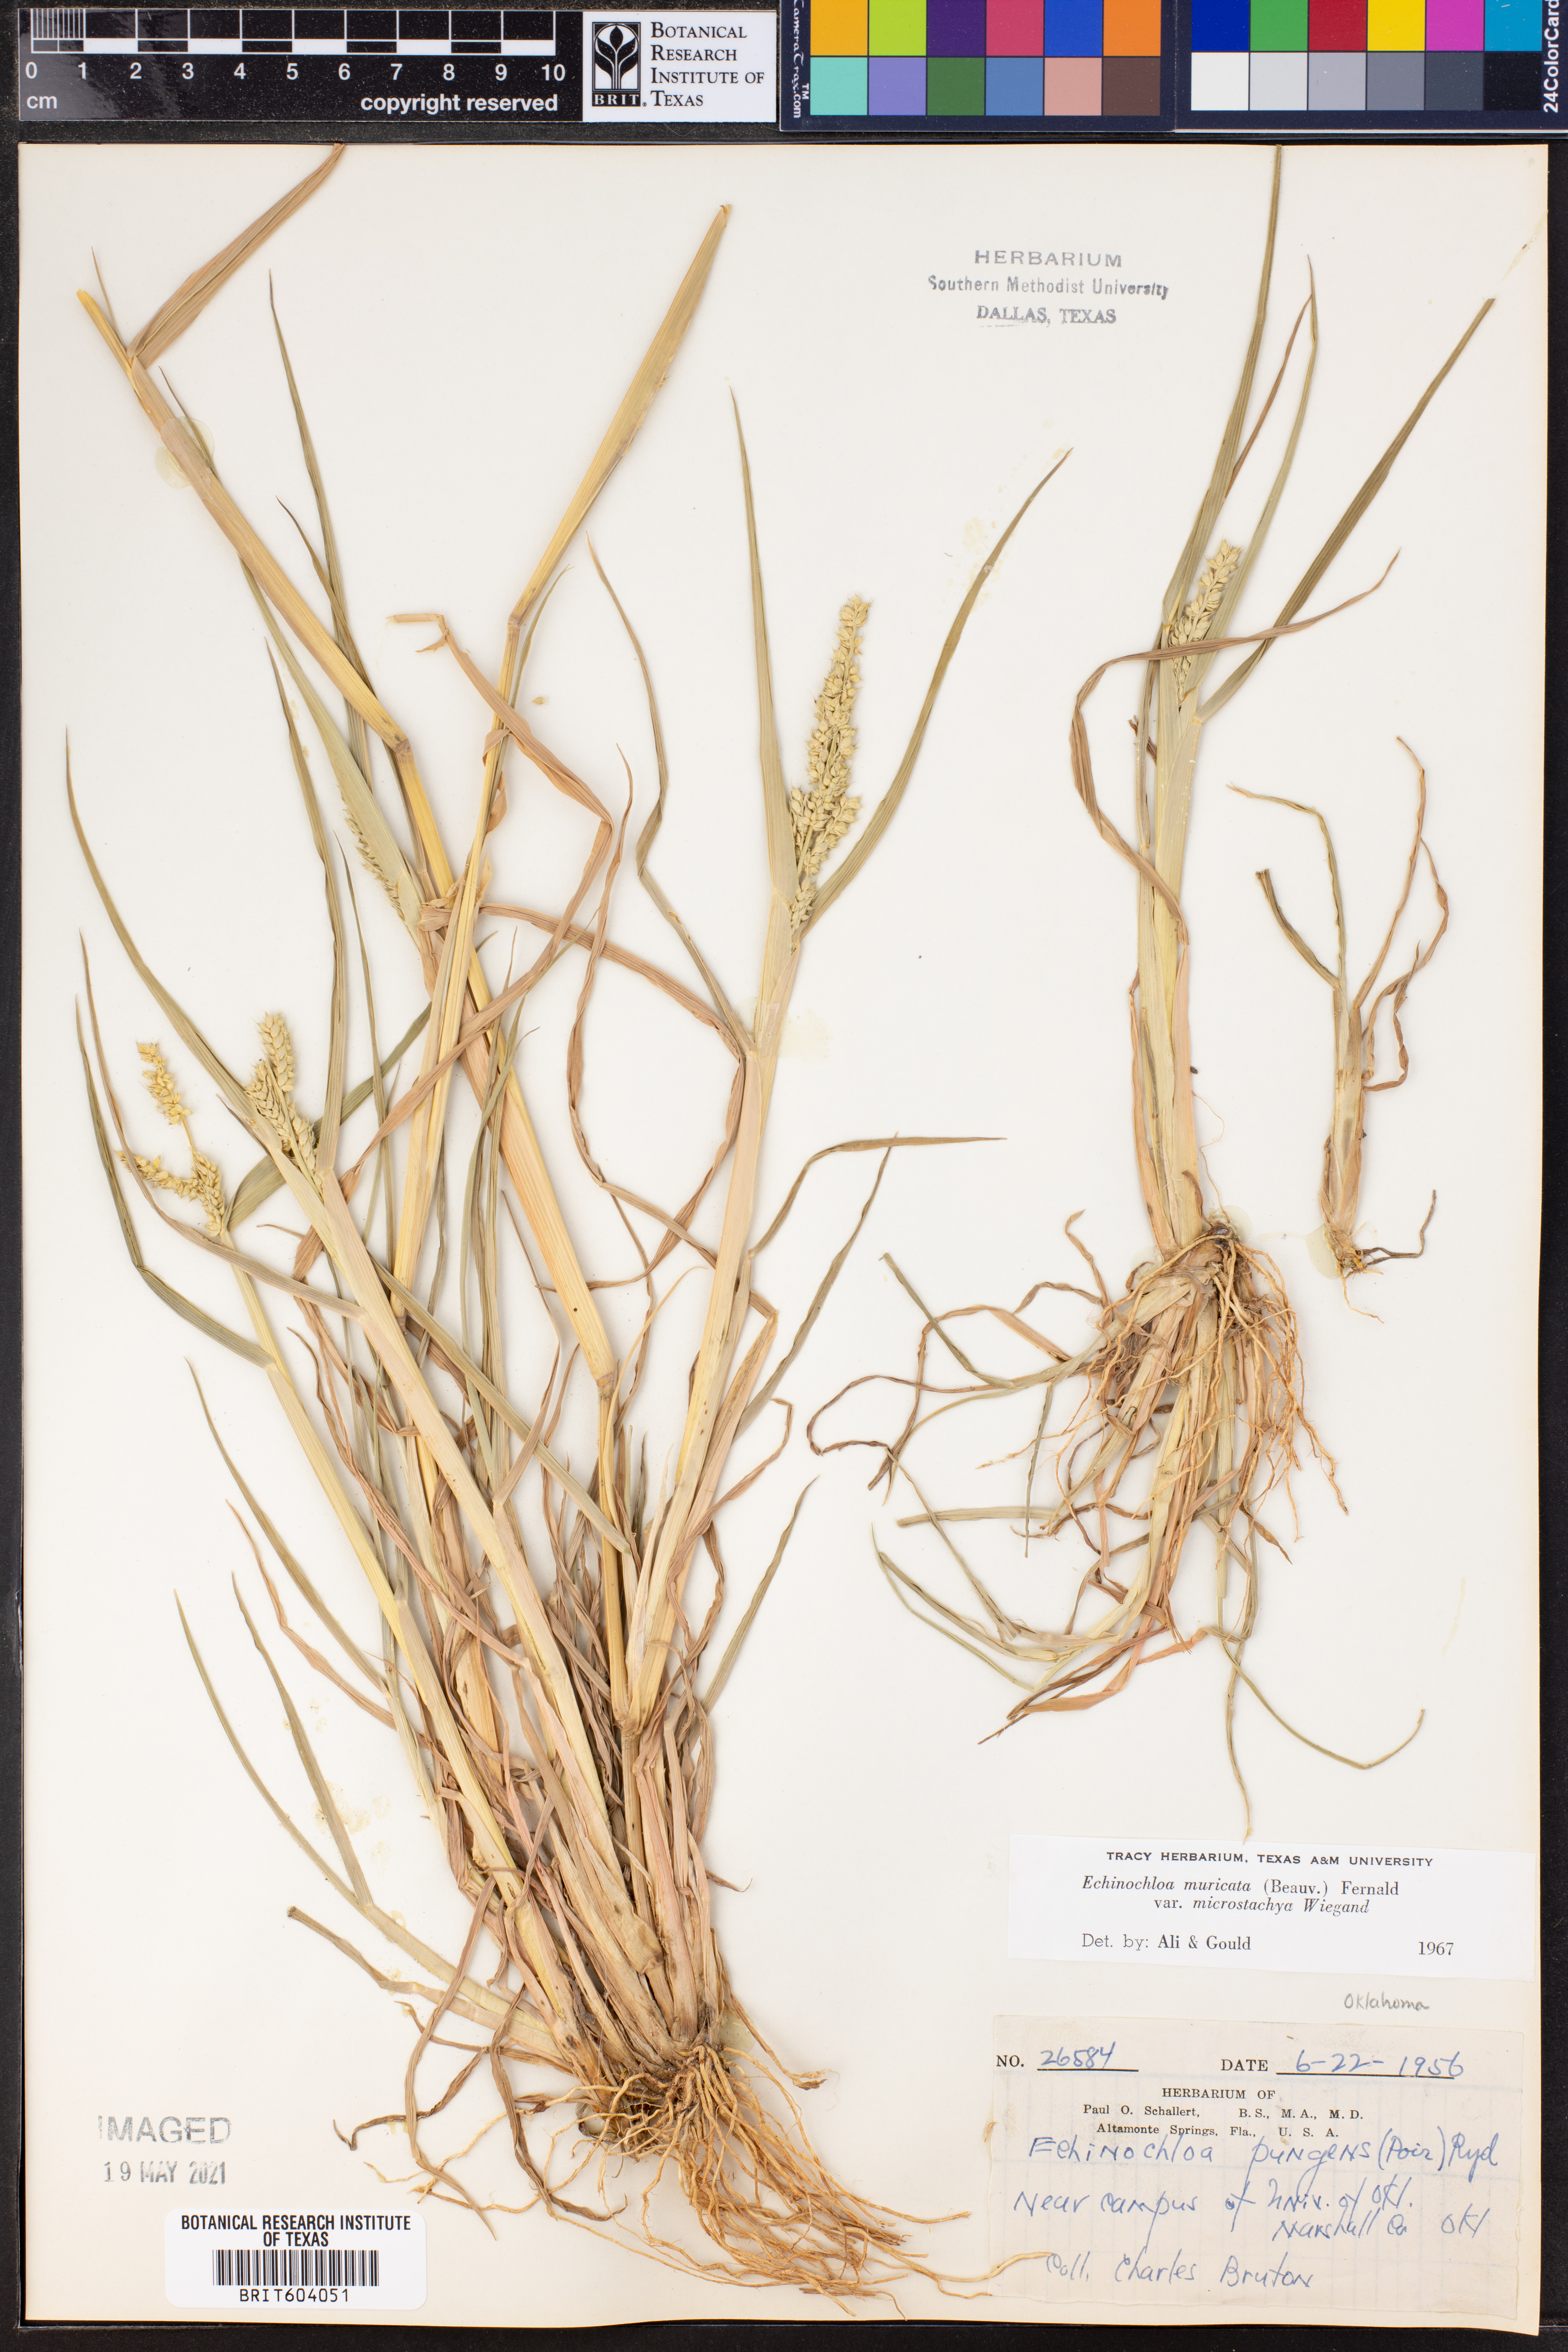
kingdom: Plantae
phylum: Tracheophyta
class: Liliopsida
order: Poales
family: Poaceae
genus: Echinochloa
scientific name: Echinochloa muricata
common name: American barnyard grass
